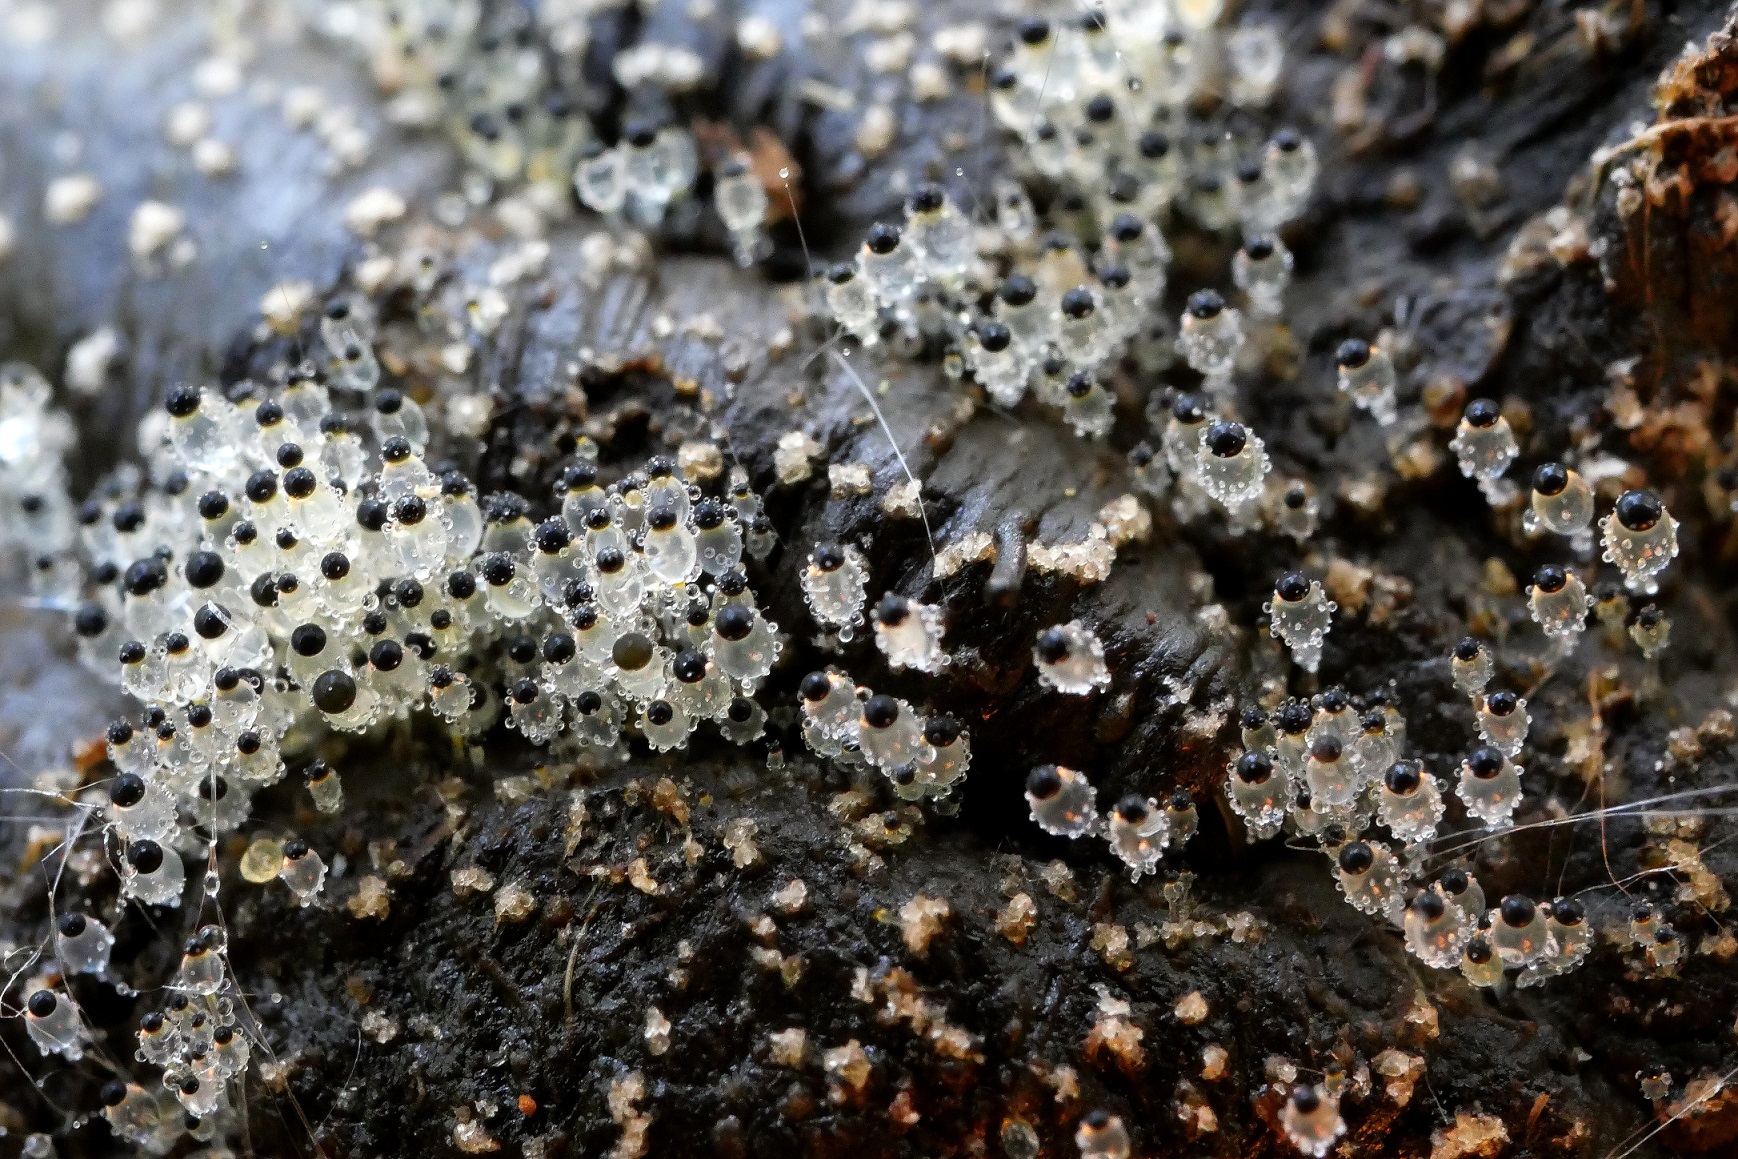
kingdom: Fungi
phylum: Mucoromycota
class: Mucoromycetes
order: Mucorales
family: Pilobolaceae
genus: Pilobolus
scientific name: Pilobolus
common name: boldkaster
